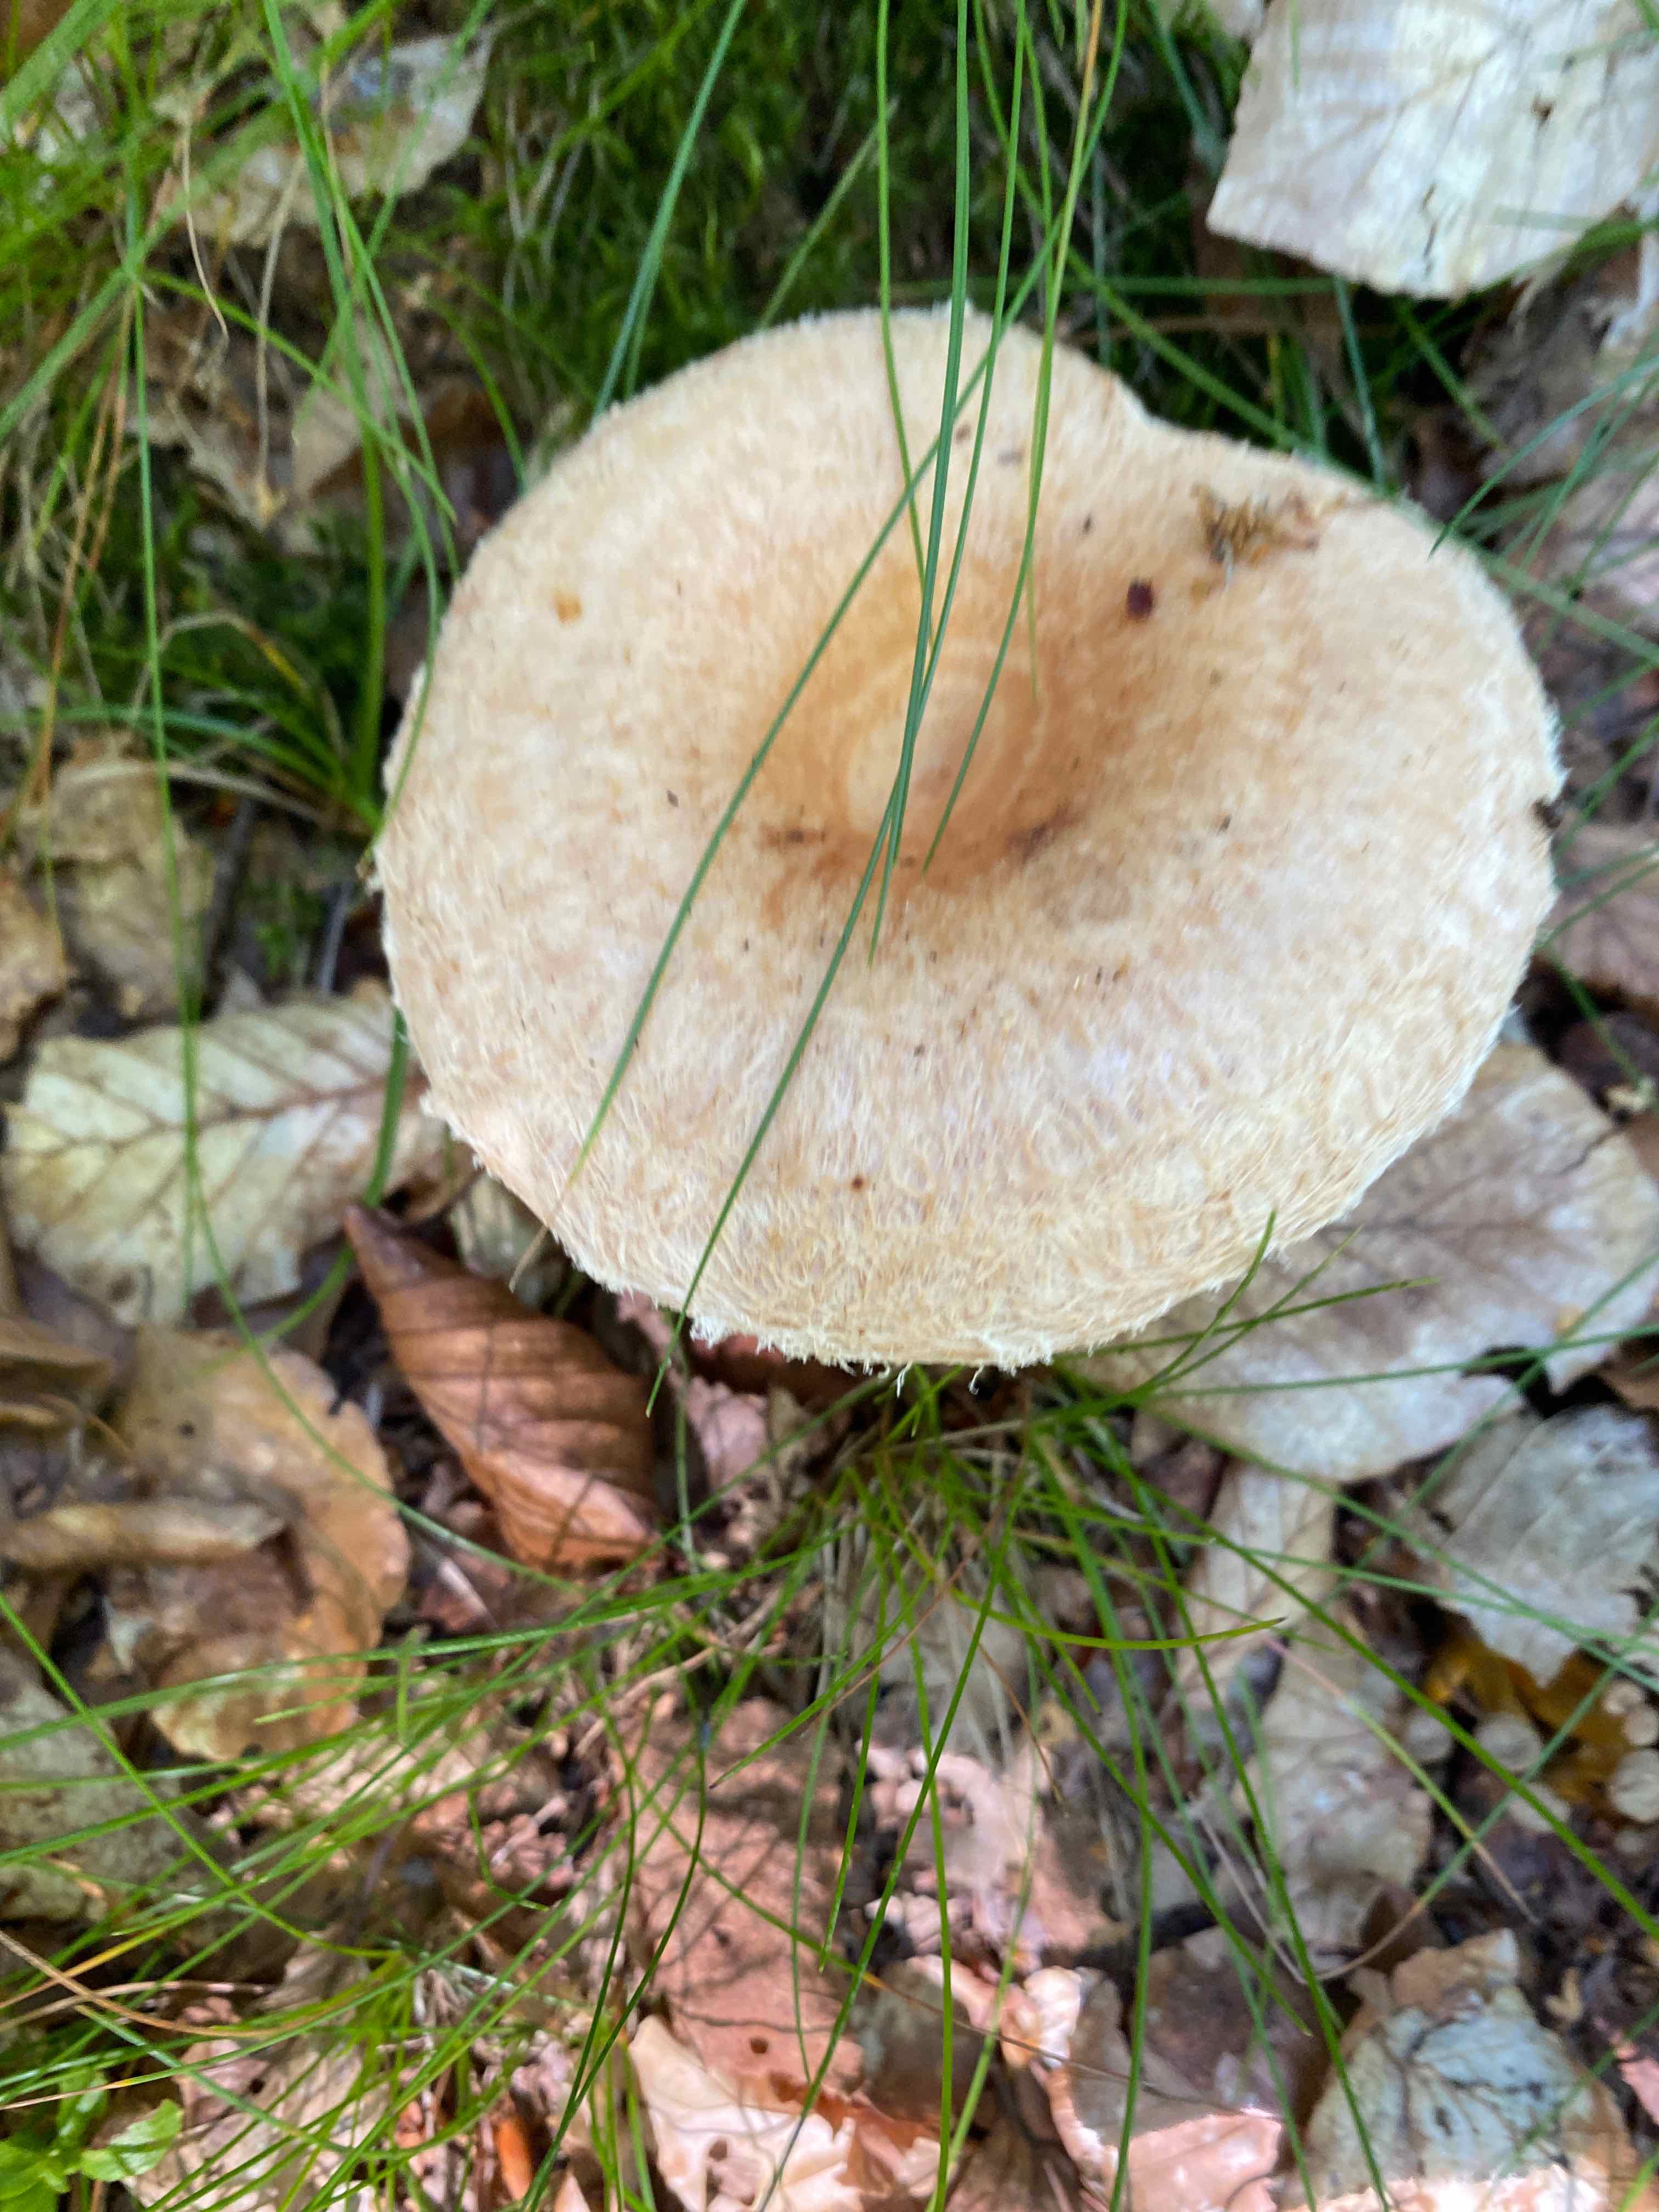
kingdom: Fungi
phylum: Basidiomycota
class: Agaricomycetes
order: Russulales
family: Russulaceae
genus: Lactarius
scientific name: Lactarius torminosus
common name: skægget mælkehat
